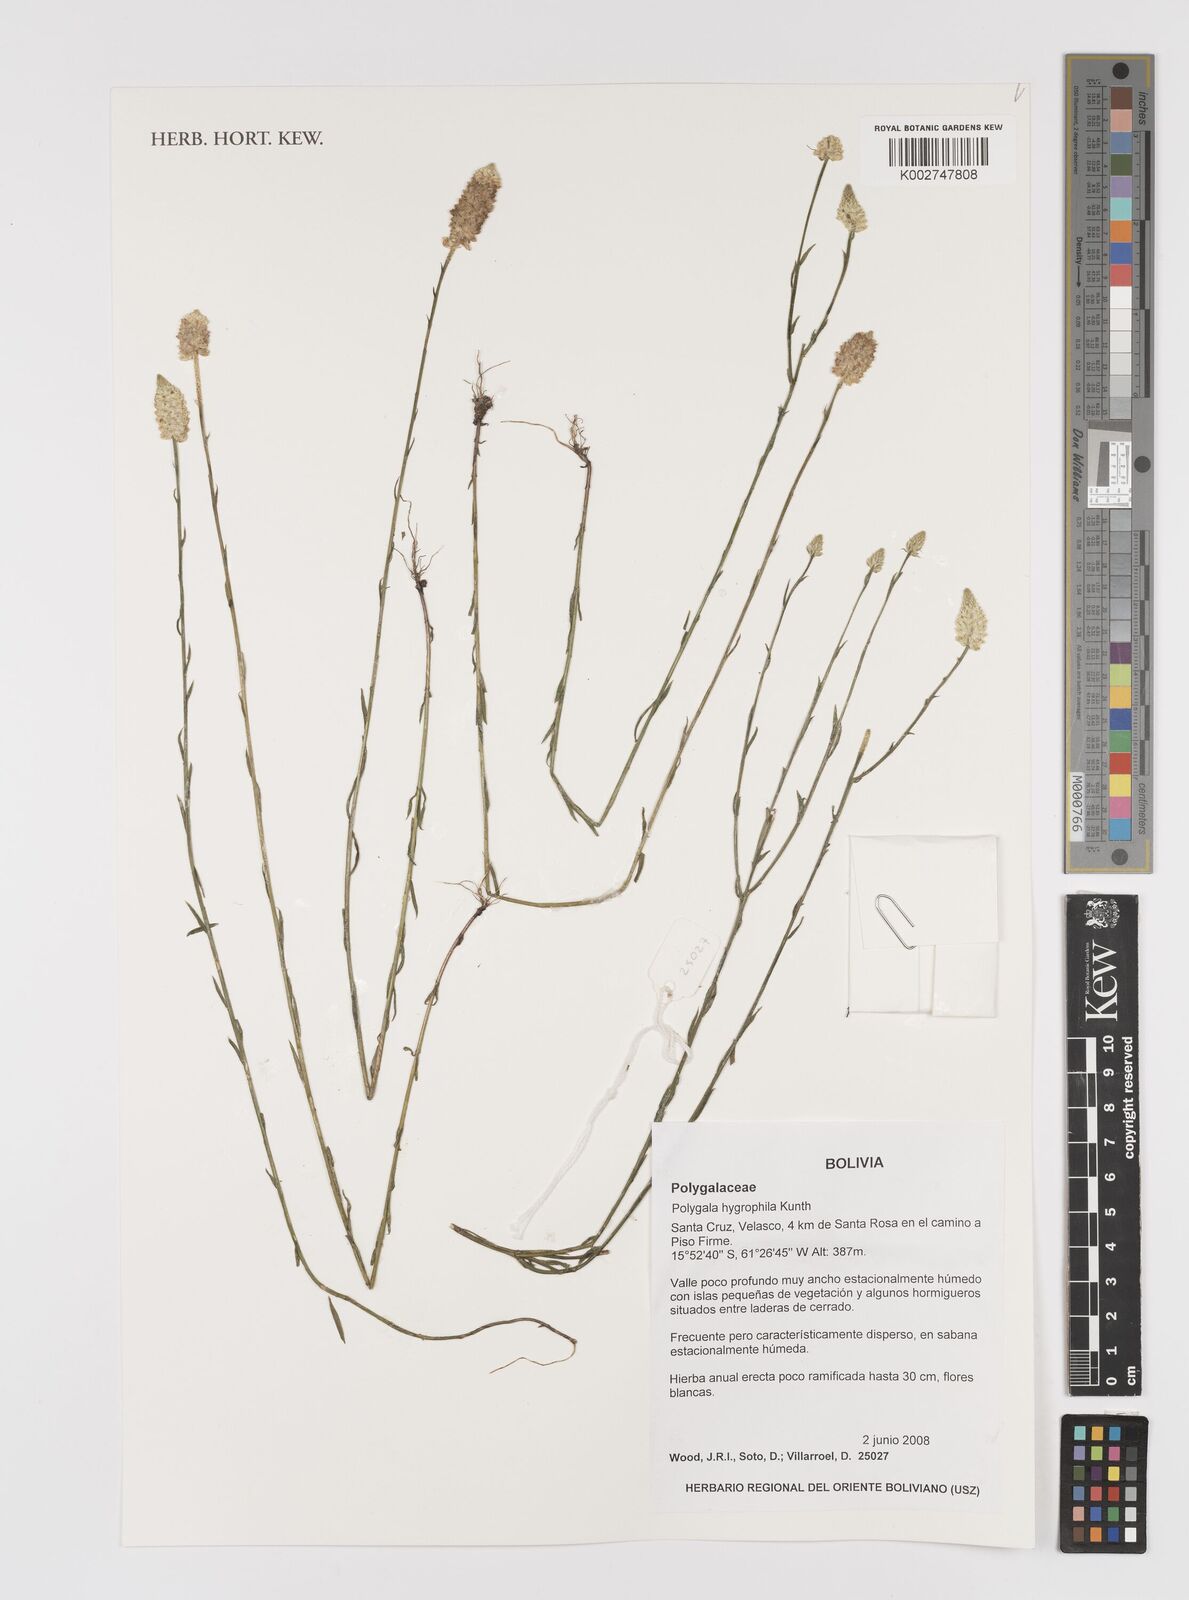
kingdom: Plantae
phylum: Tracheophyta
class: Magnoliopsida
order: Fabales
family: Polygalaceae
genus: Polygala
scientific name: Polygala hygrophila
